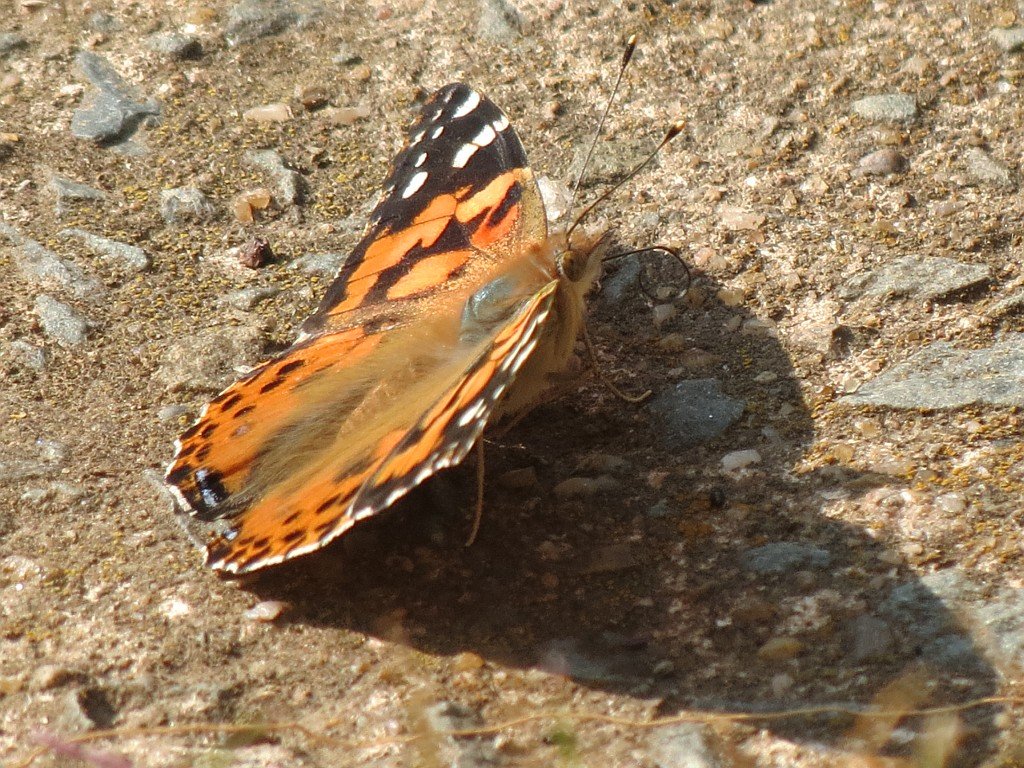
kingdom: Animalia
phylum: Arthropoda
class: Insecta
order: Lepidoptera
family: Nymphalidae
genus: Vanessa
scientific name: Vanessa cardui
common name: Painted Lady
